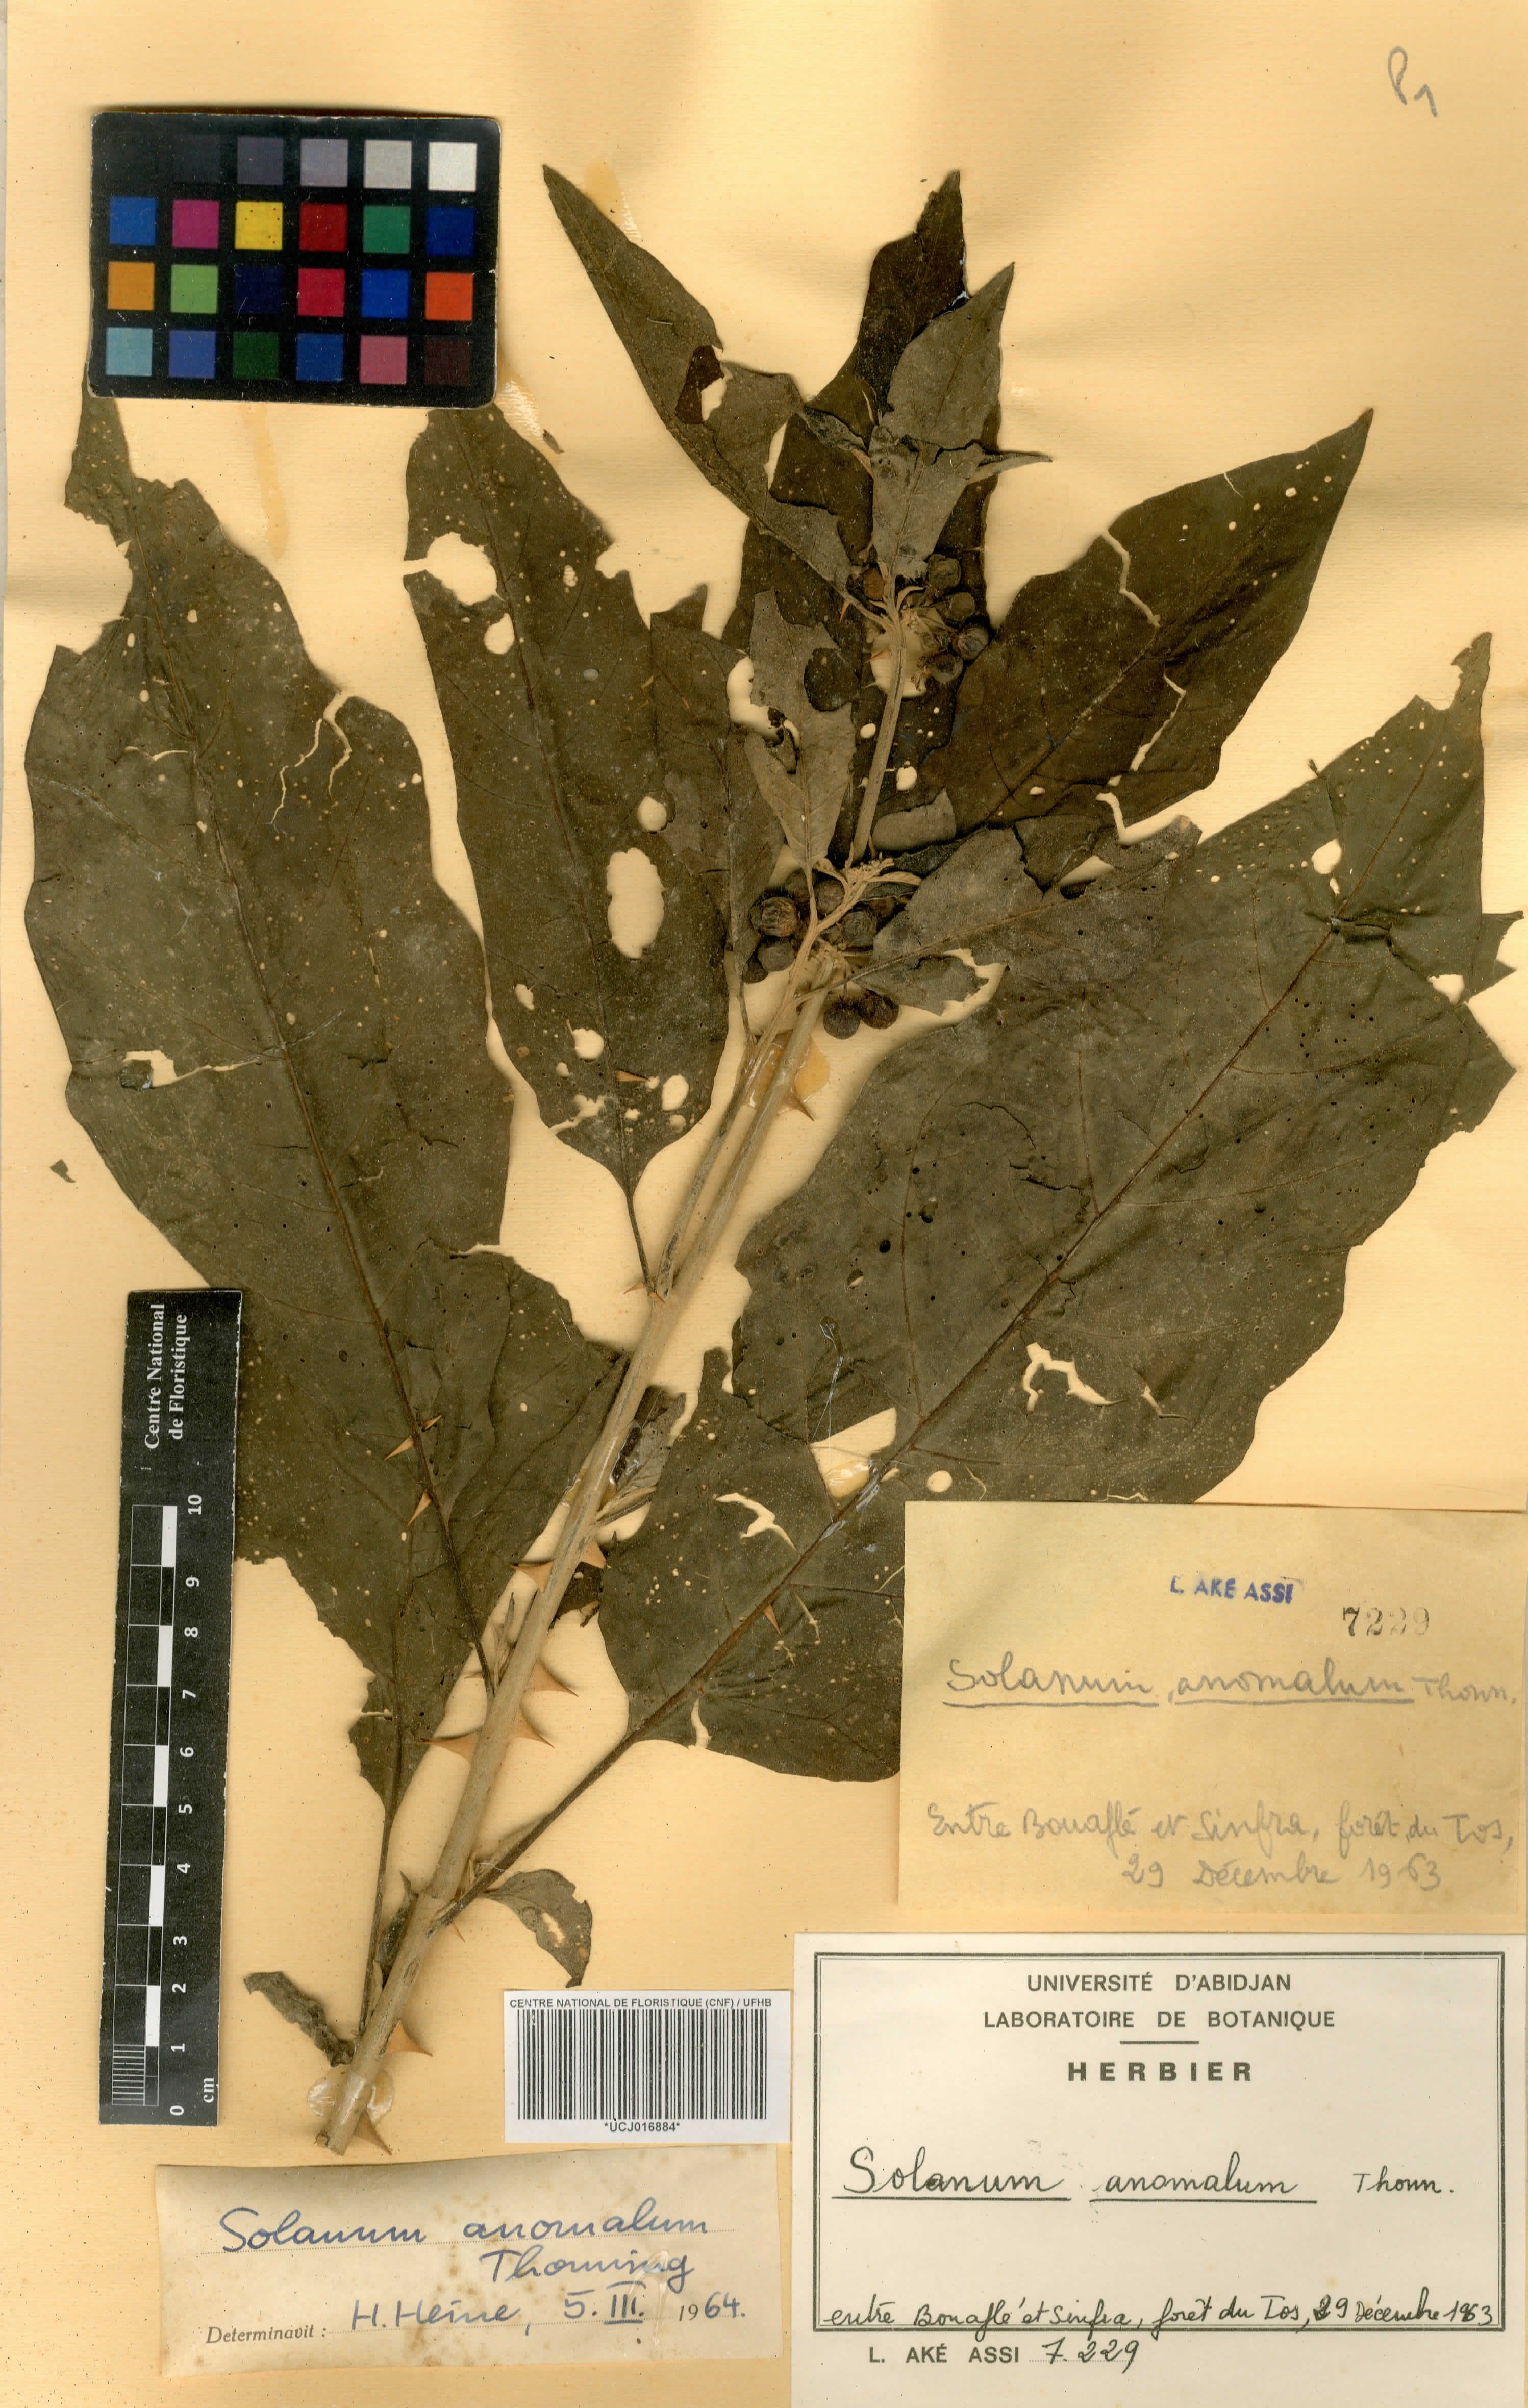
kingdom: Plantae
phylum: Tracheophyta
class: Magnoliopsida
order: Solanales
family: Solanaceae
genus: Solanum
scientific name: Solanum anguivi
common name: Forest bitterberry
